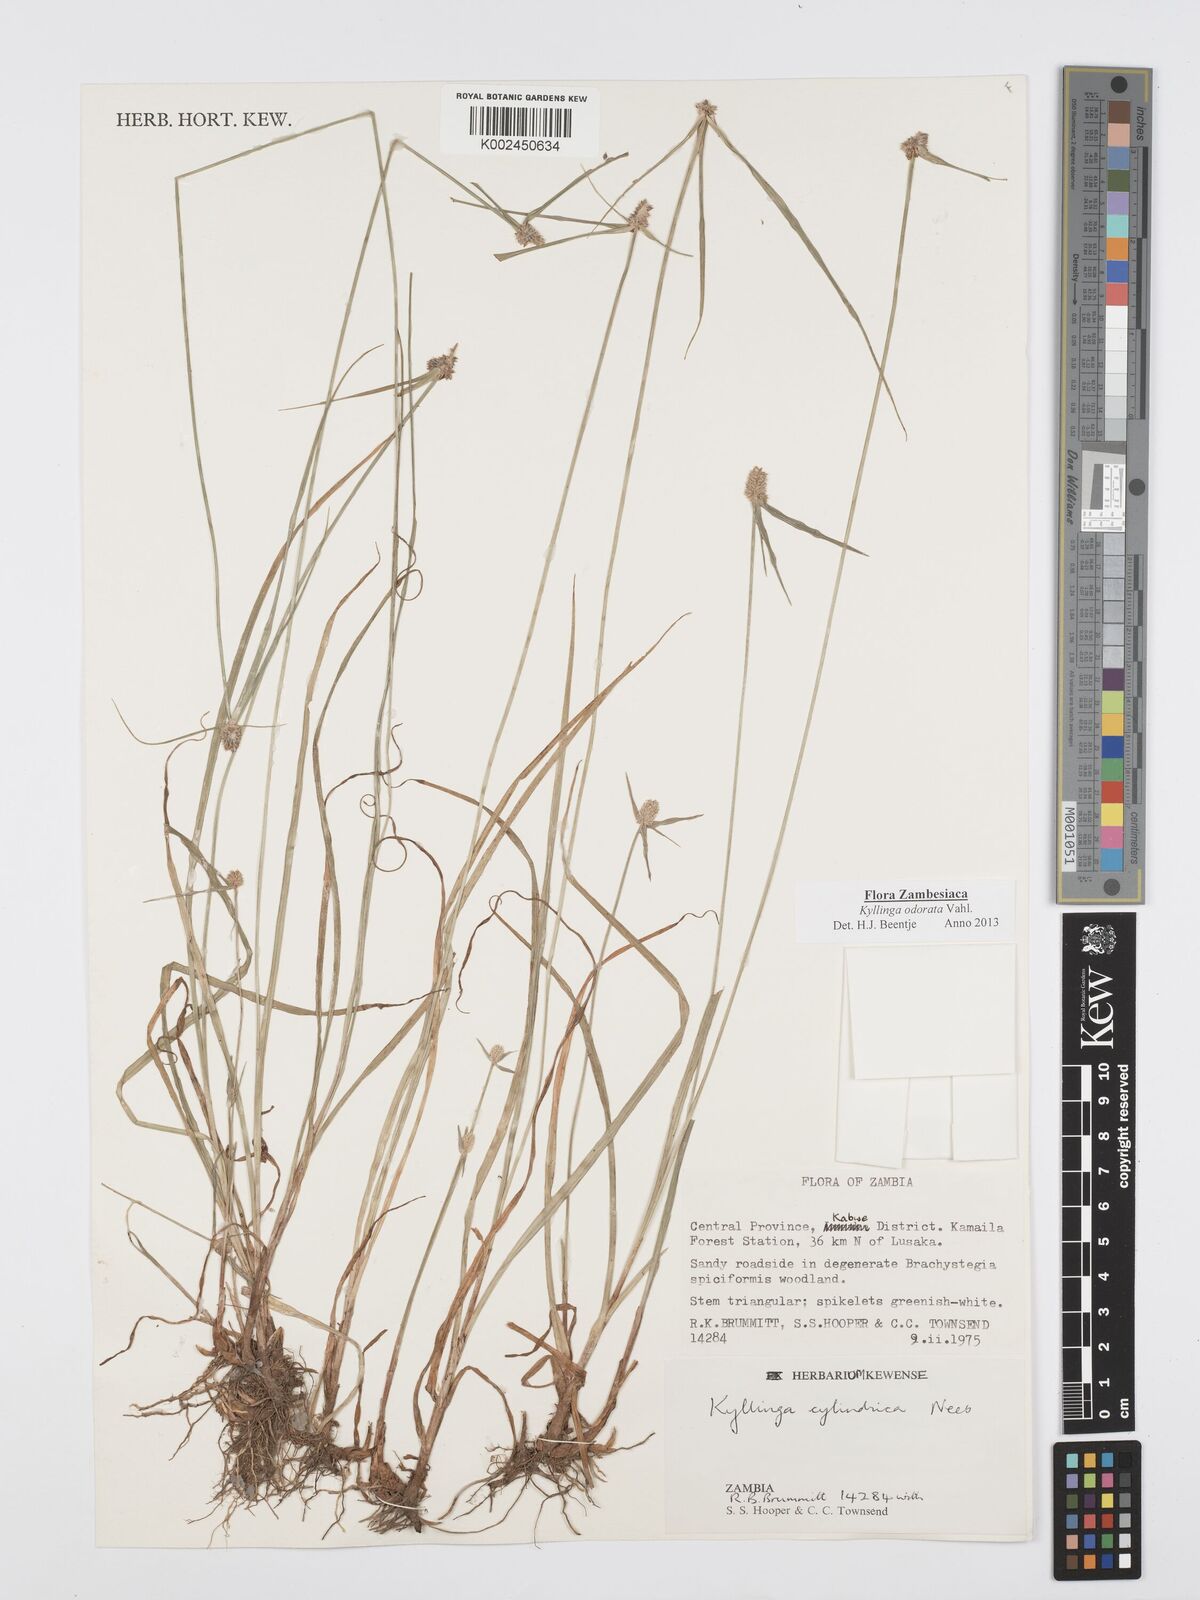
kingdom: Plantae
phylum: Tracheophyta
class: Liliopsida
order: Poales
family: Cyperaceae
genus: Cyperus
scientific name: Cyperus
